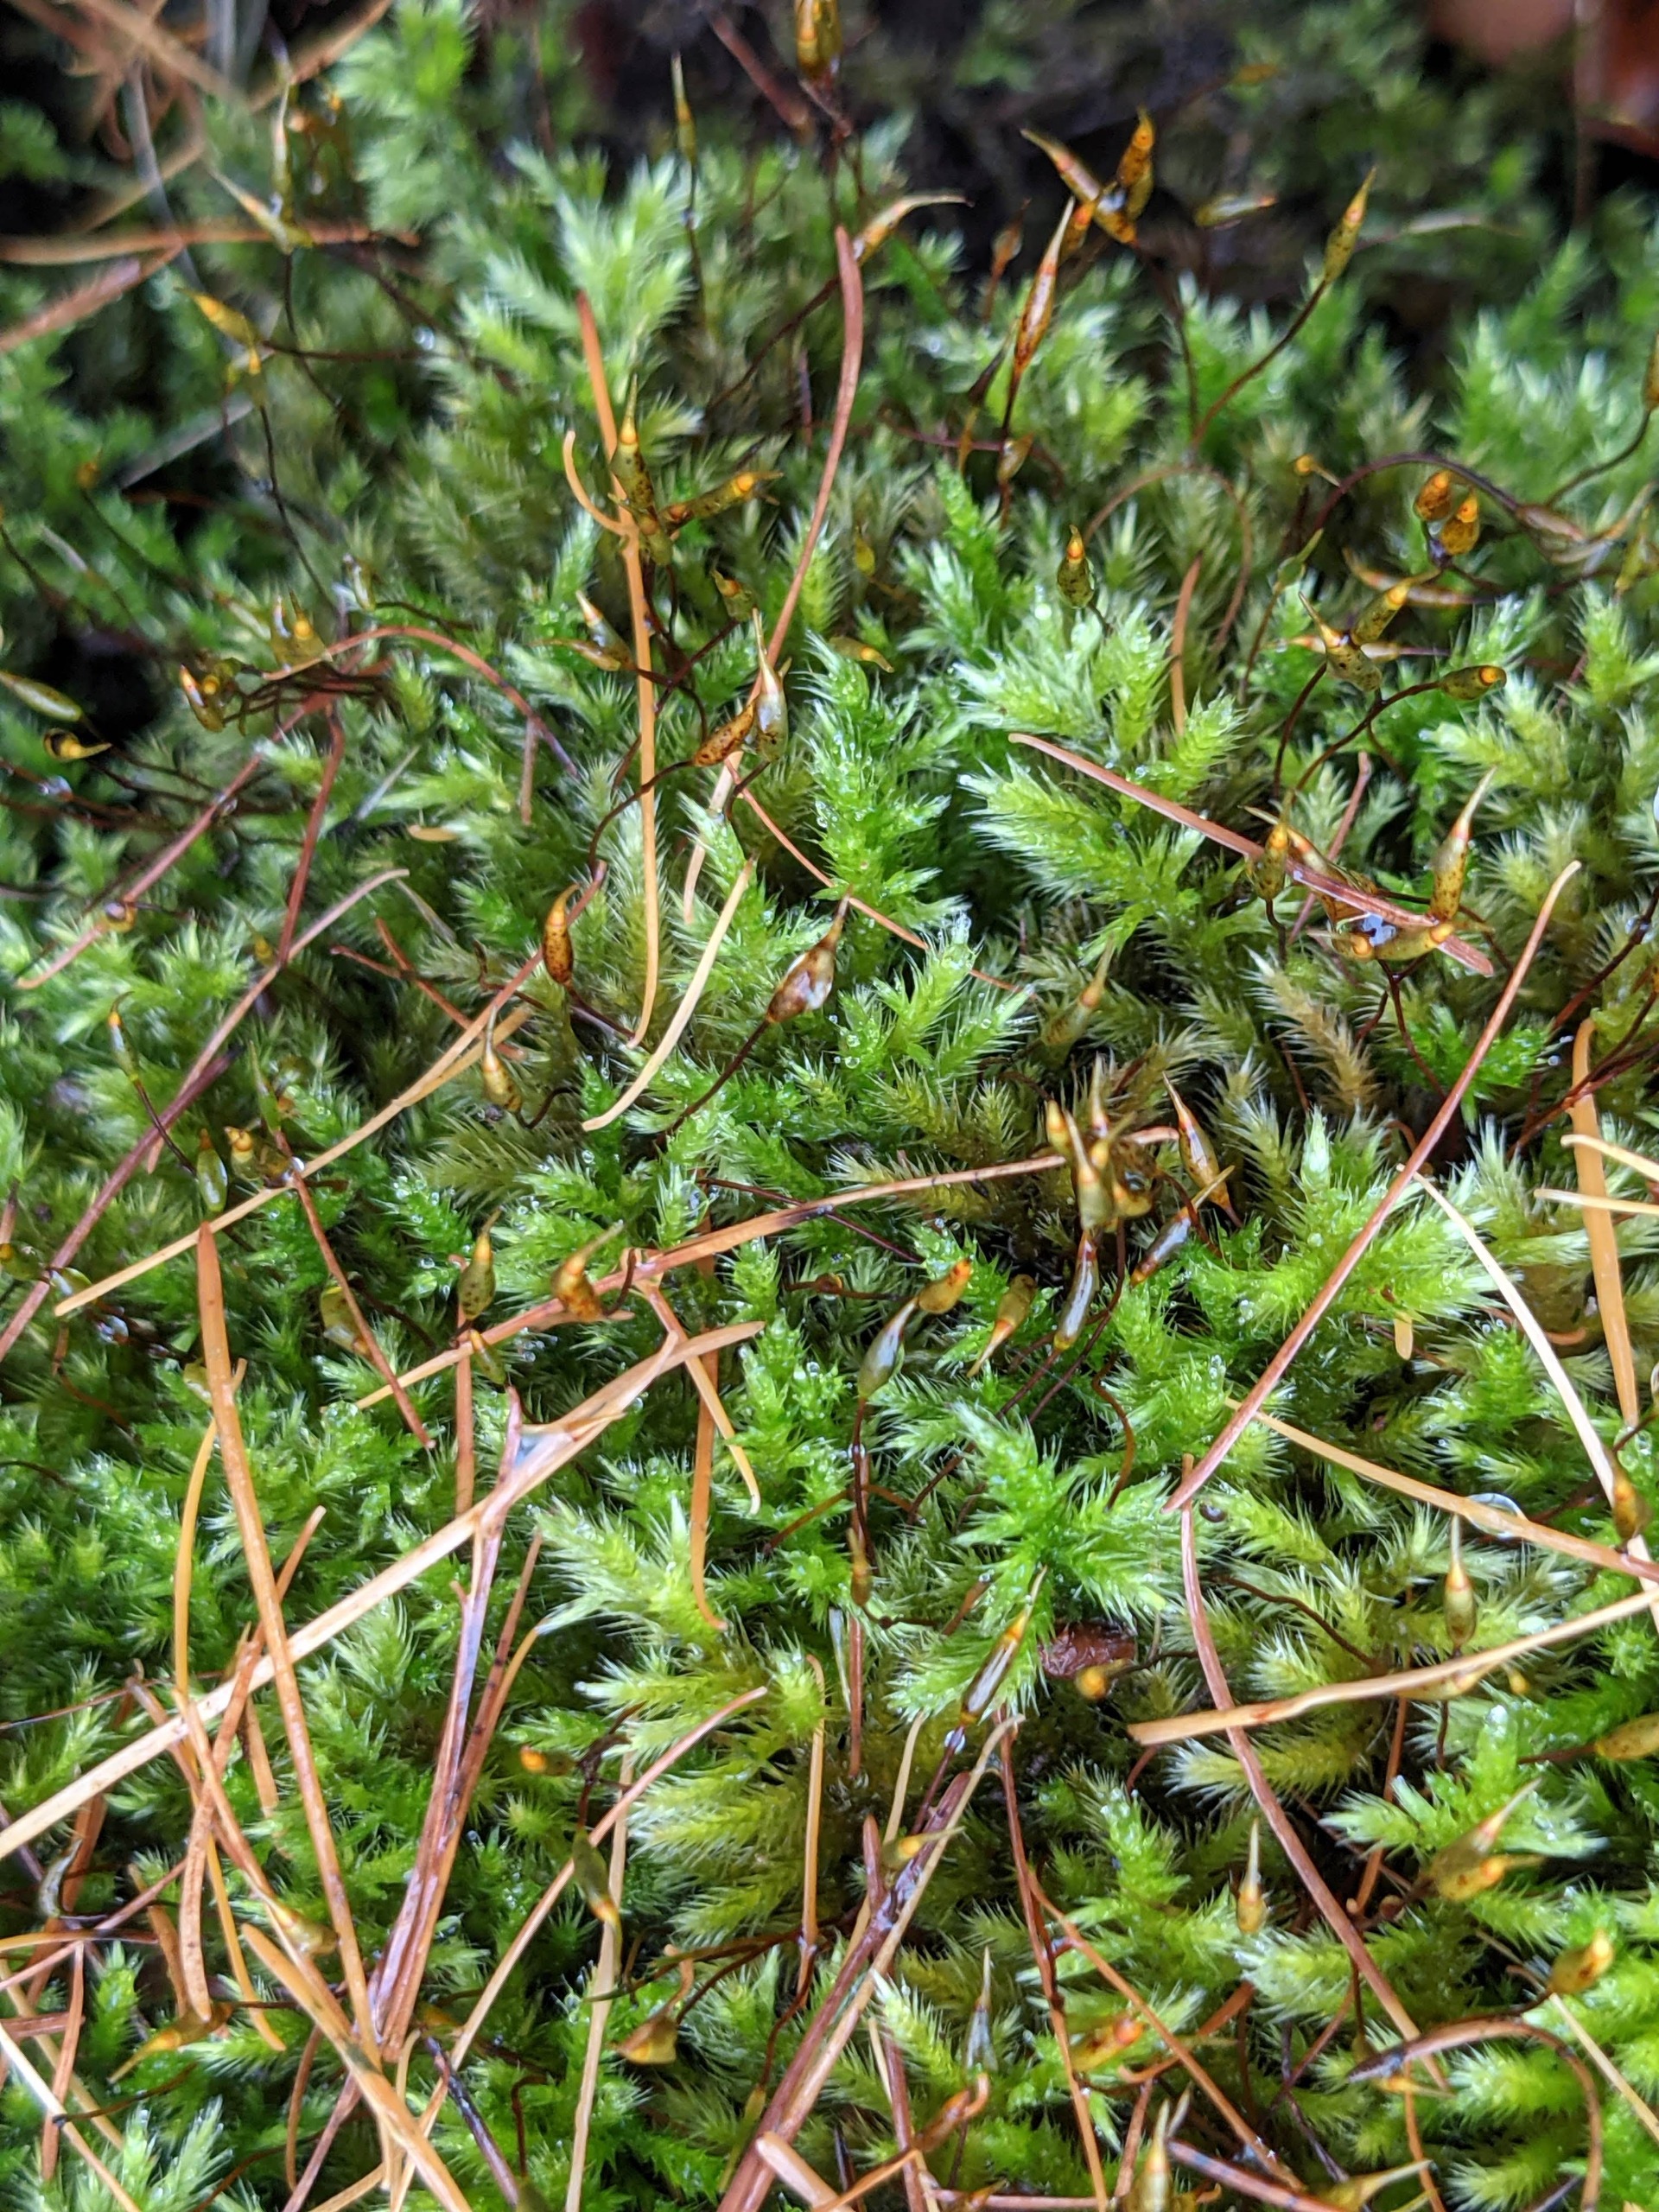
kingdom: Plantae
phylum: Bryophyta
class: Bryopsida
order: Hypnales
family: Brachytheciaceae
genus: Homalothecium
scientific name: Homalothecium sericeum
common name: Krybende silkemos
